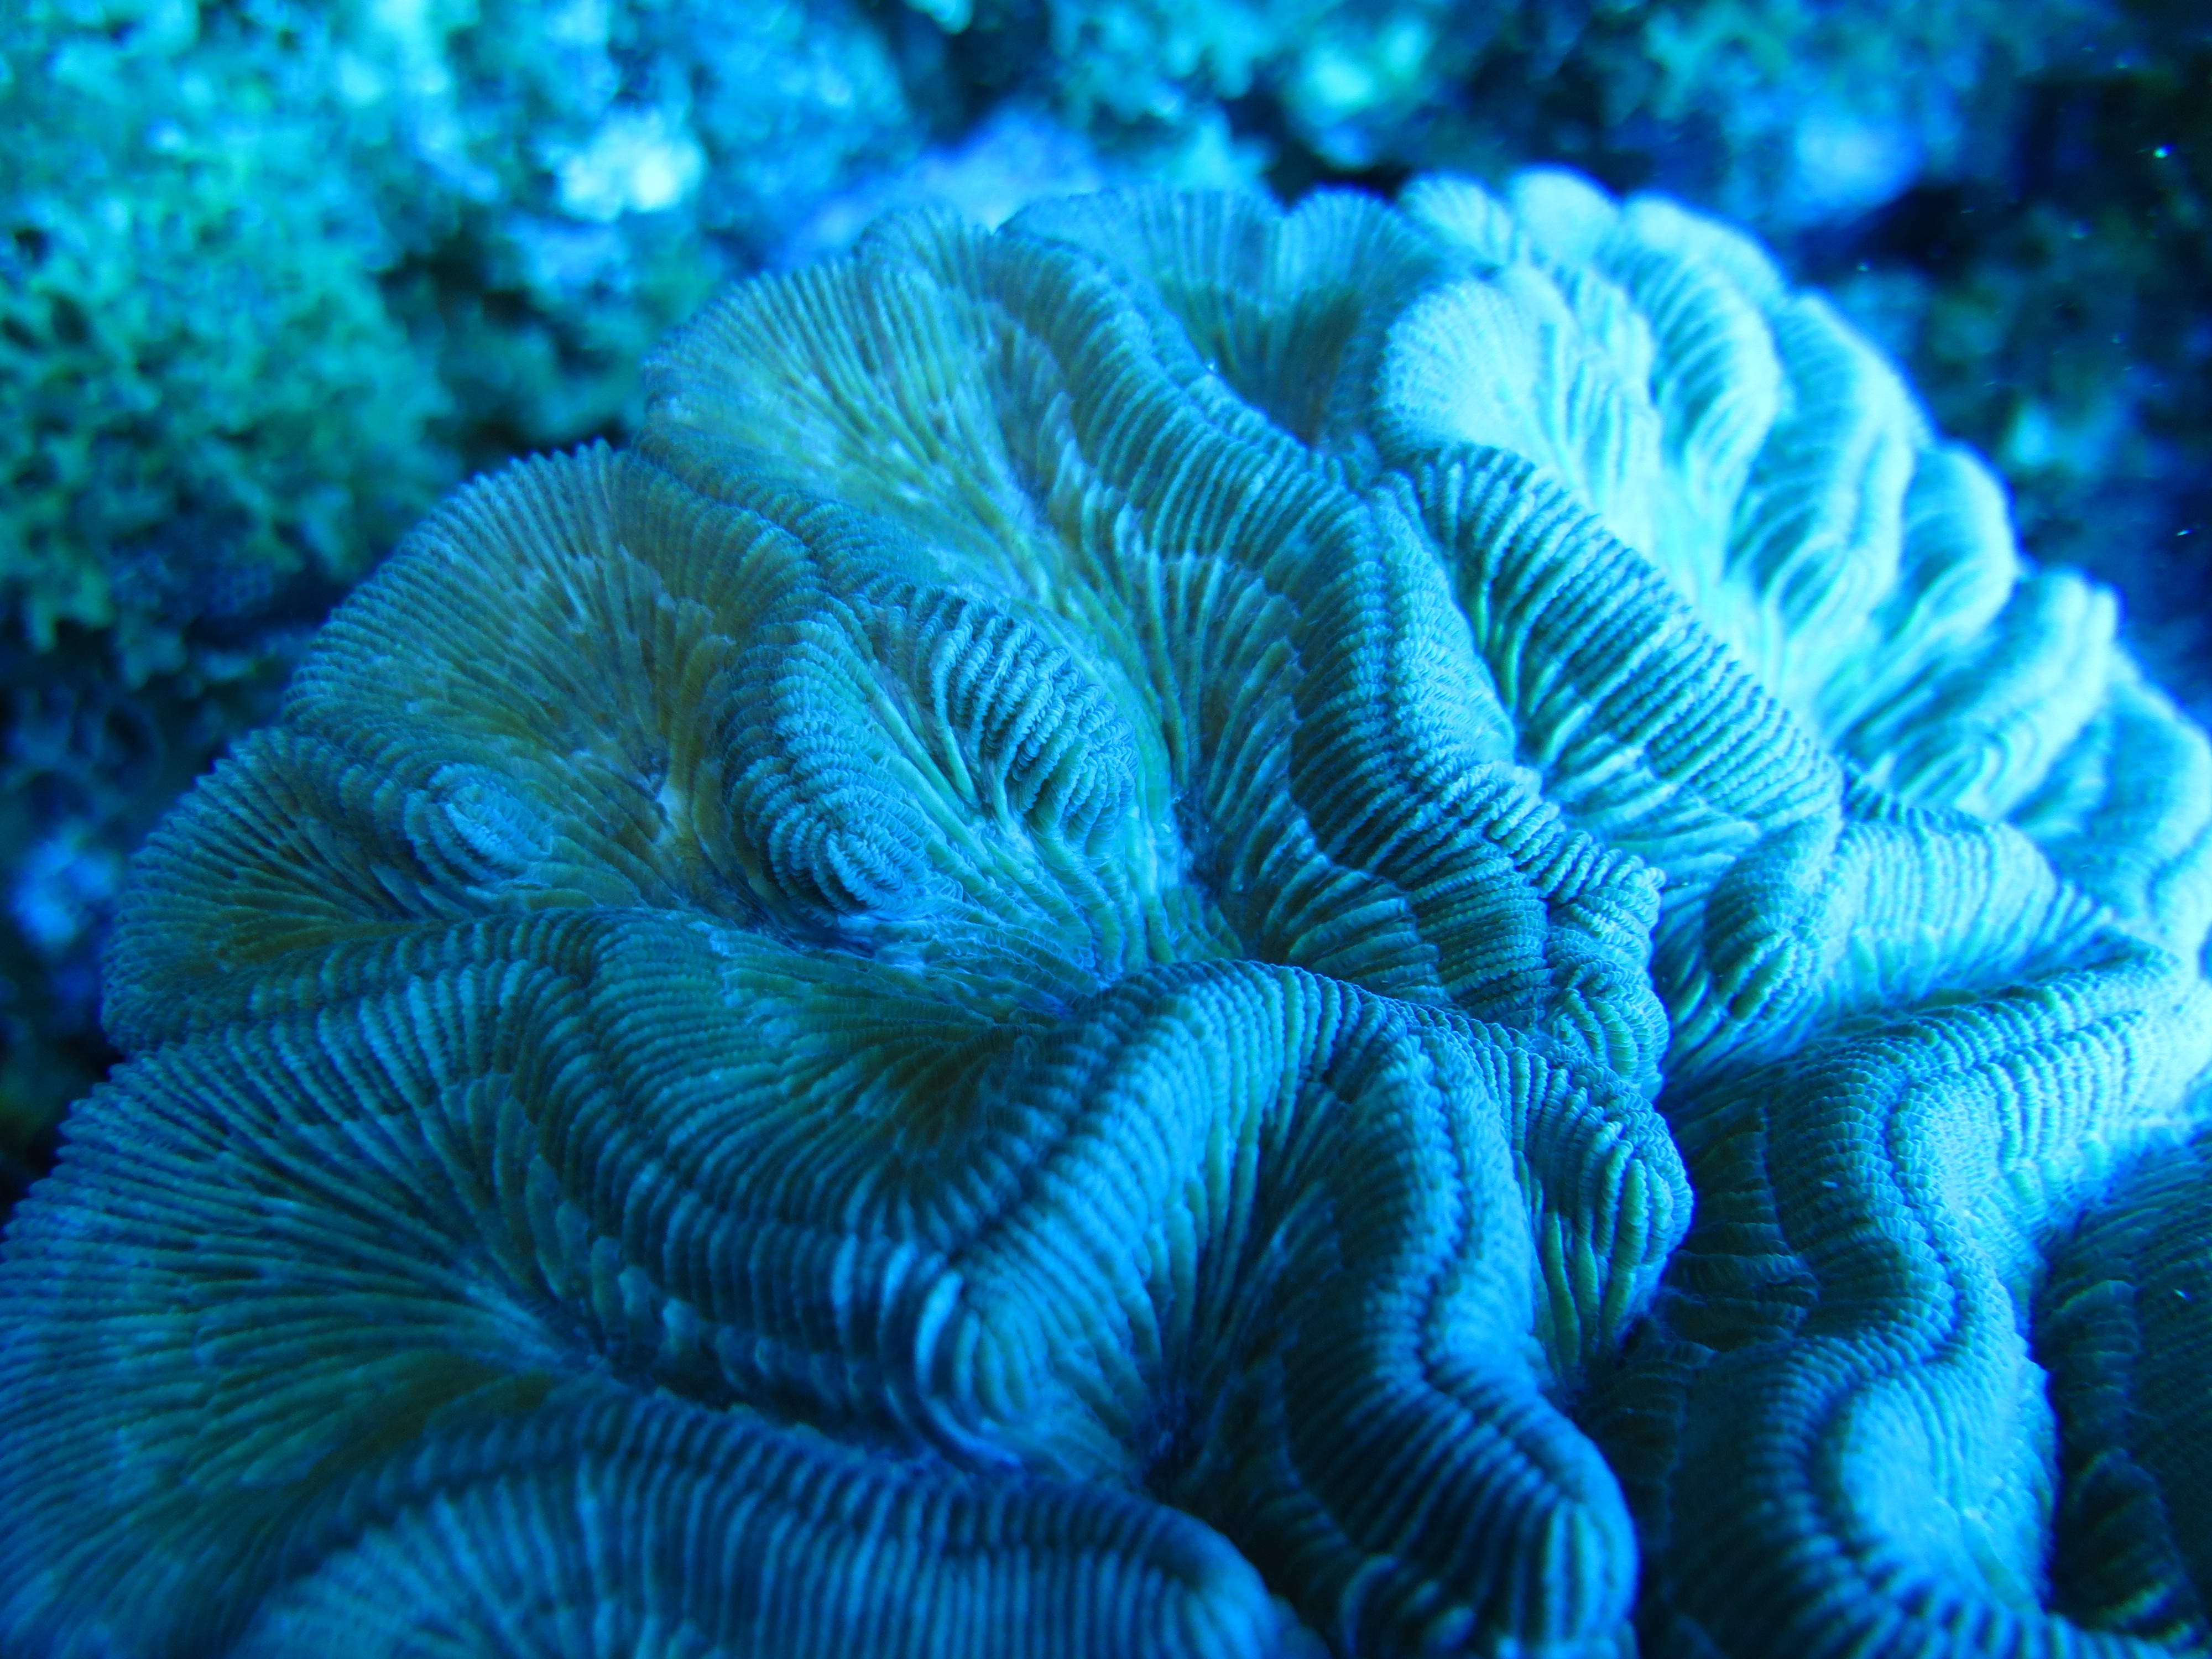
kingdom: Animalia
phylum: Cnidaria
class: Anthozoa
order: Scleractinia
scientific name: Scleractinia
